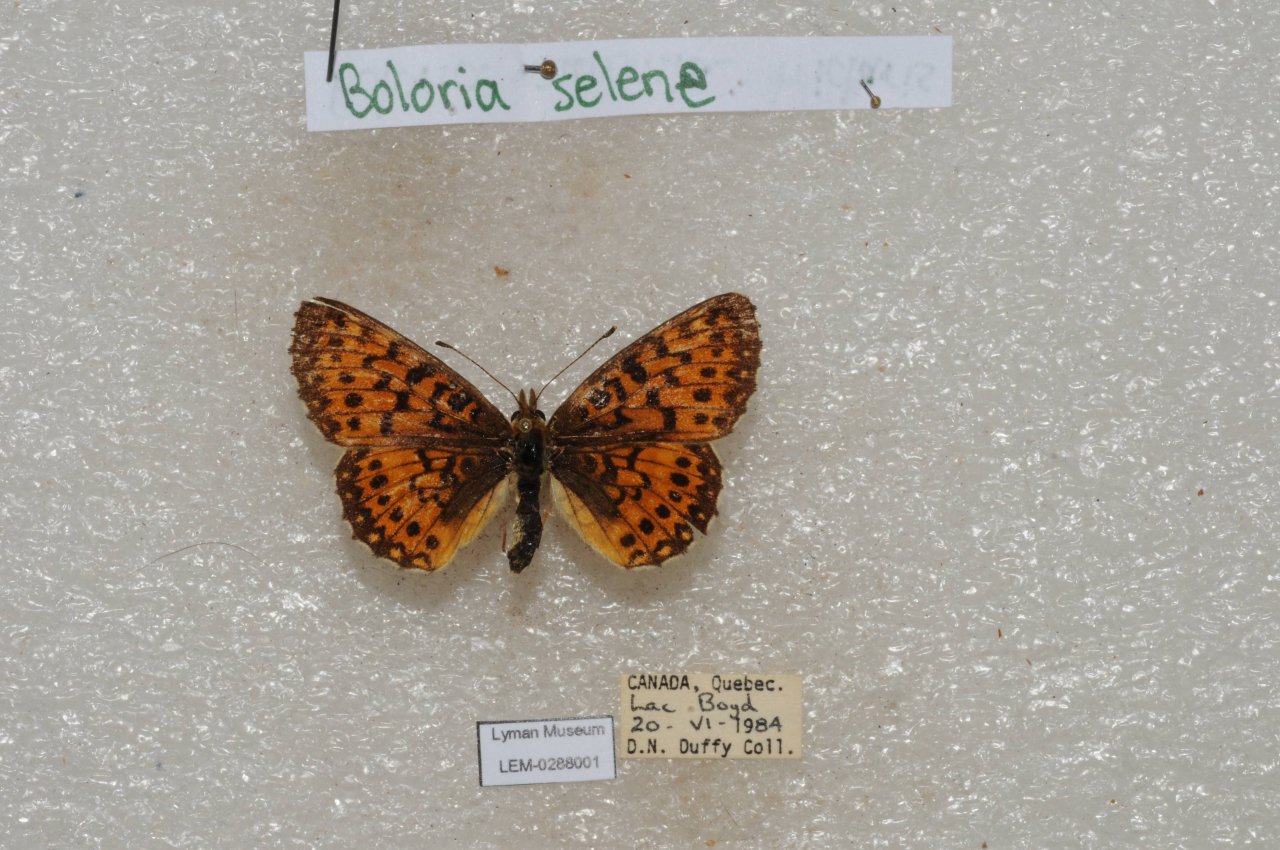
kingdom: Animalia
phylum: Arthropoda
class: Insecta
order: Lepidoptera
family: Nymphalidae
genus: Boloria
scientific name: Boloria selene
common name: Silver-bordered Fritillary
